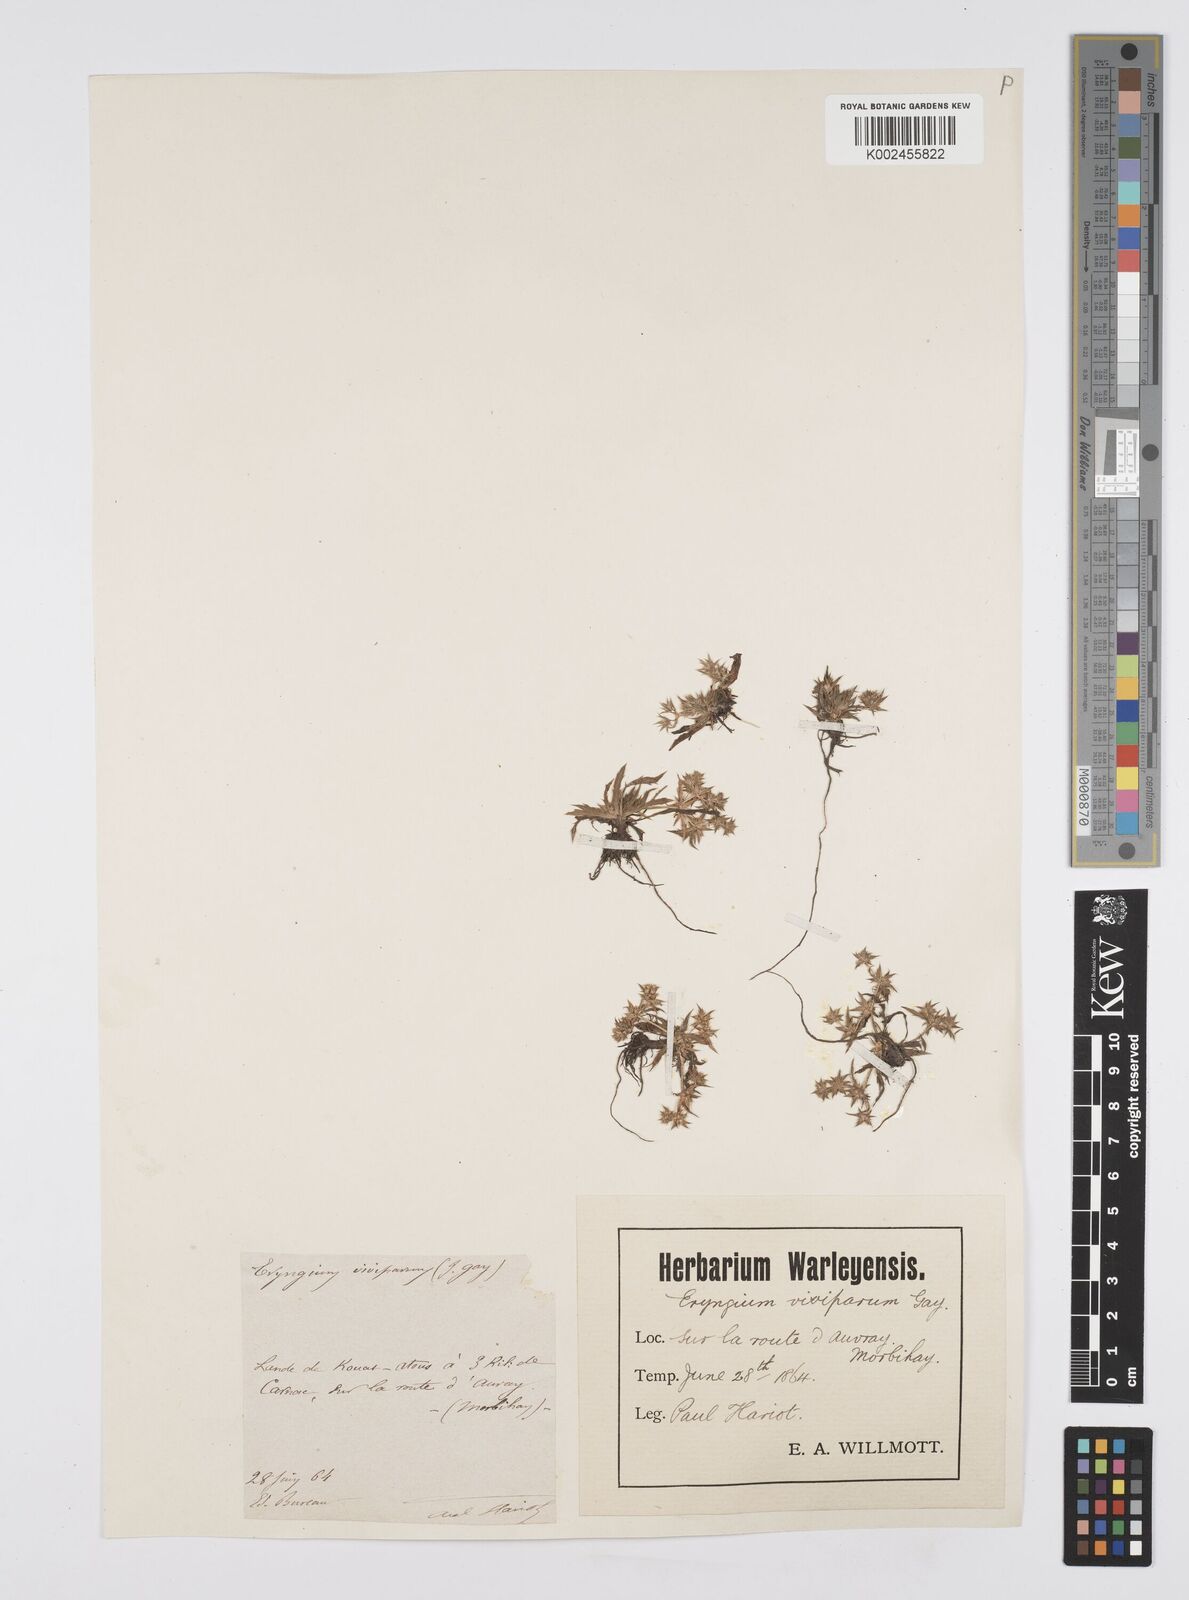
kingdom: Plantae
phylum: Tracheophyta
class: Magnoliopsida
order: Apiales
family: Apiaceae
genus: Eryngium
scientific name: Eryngium viviparum
